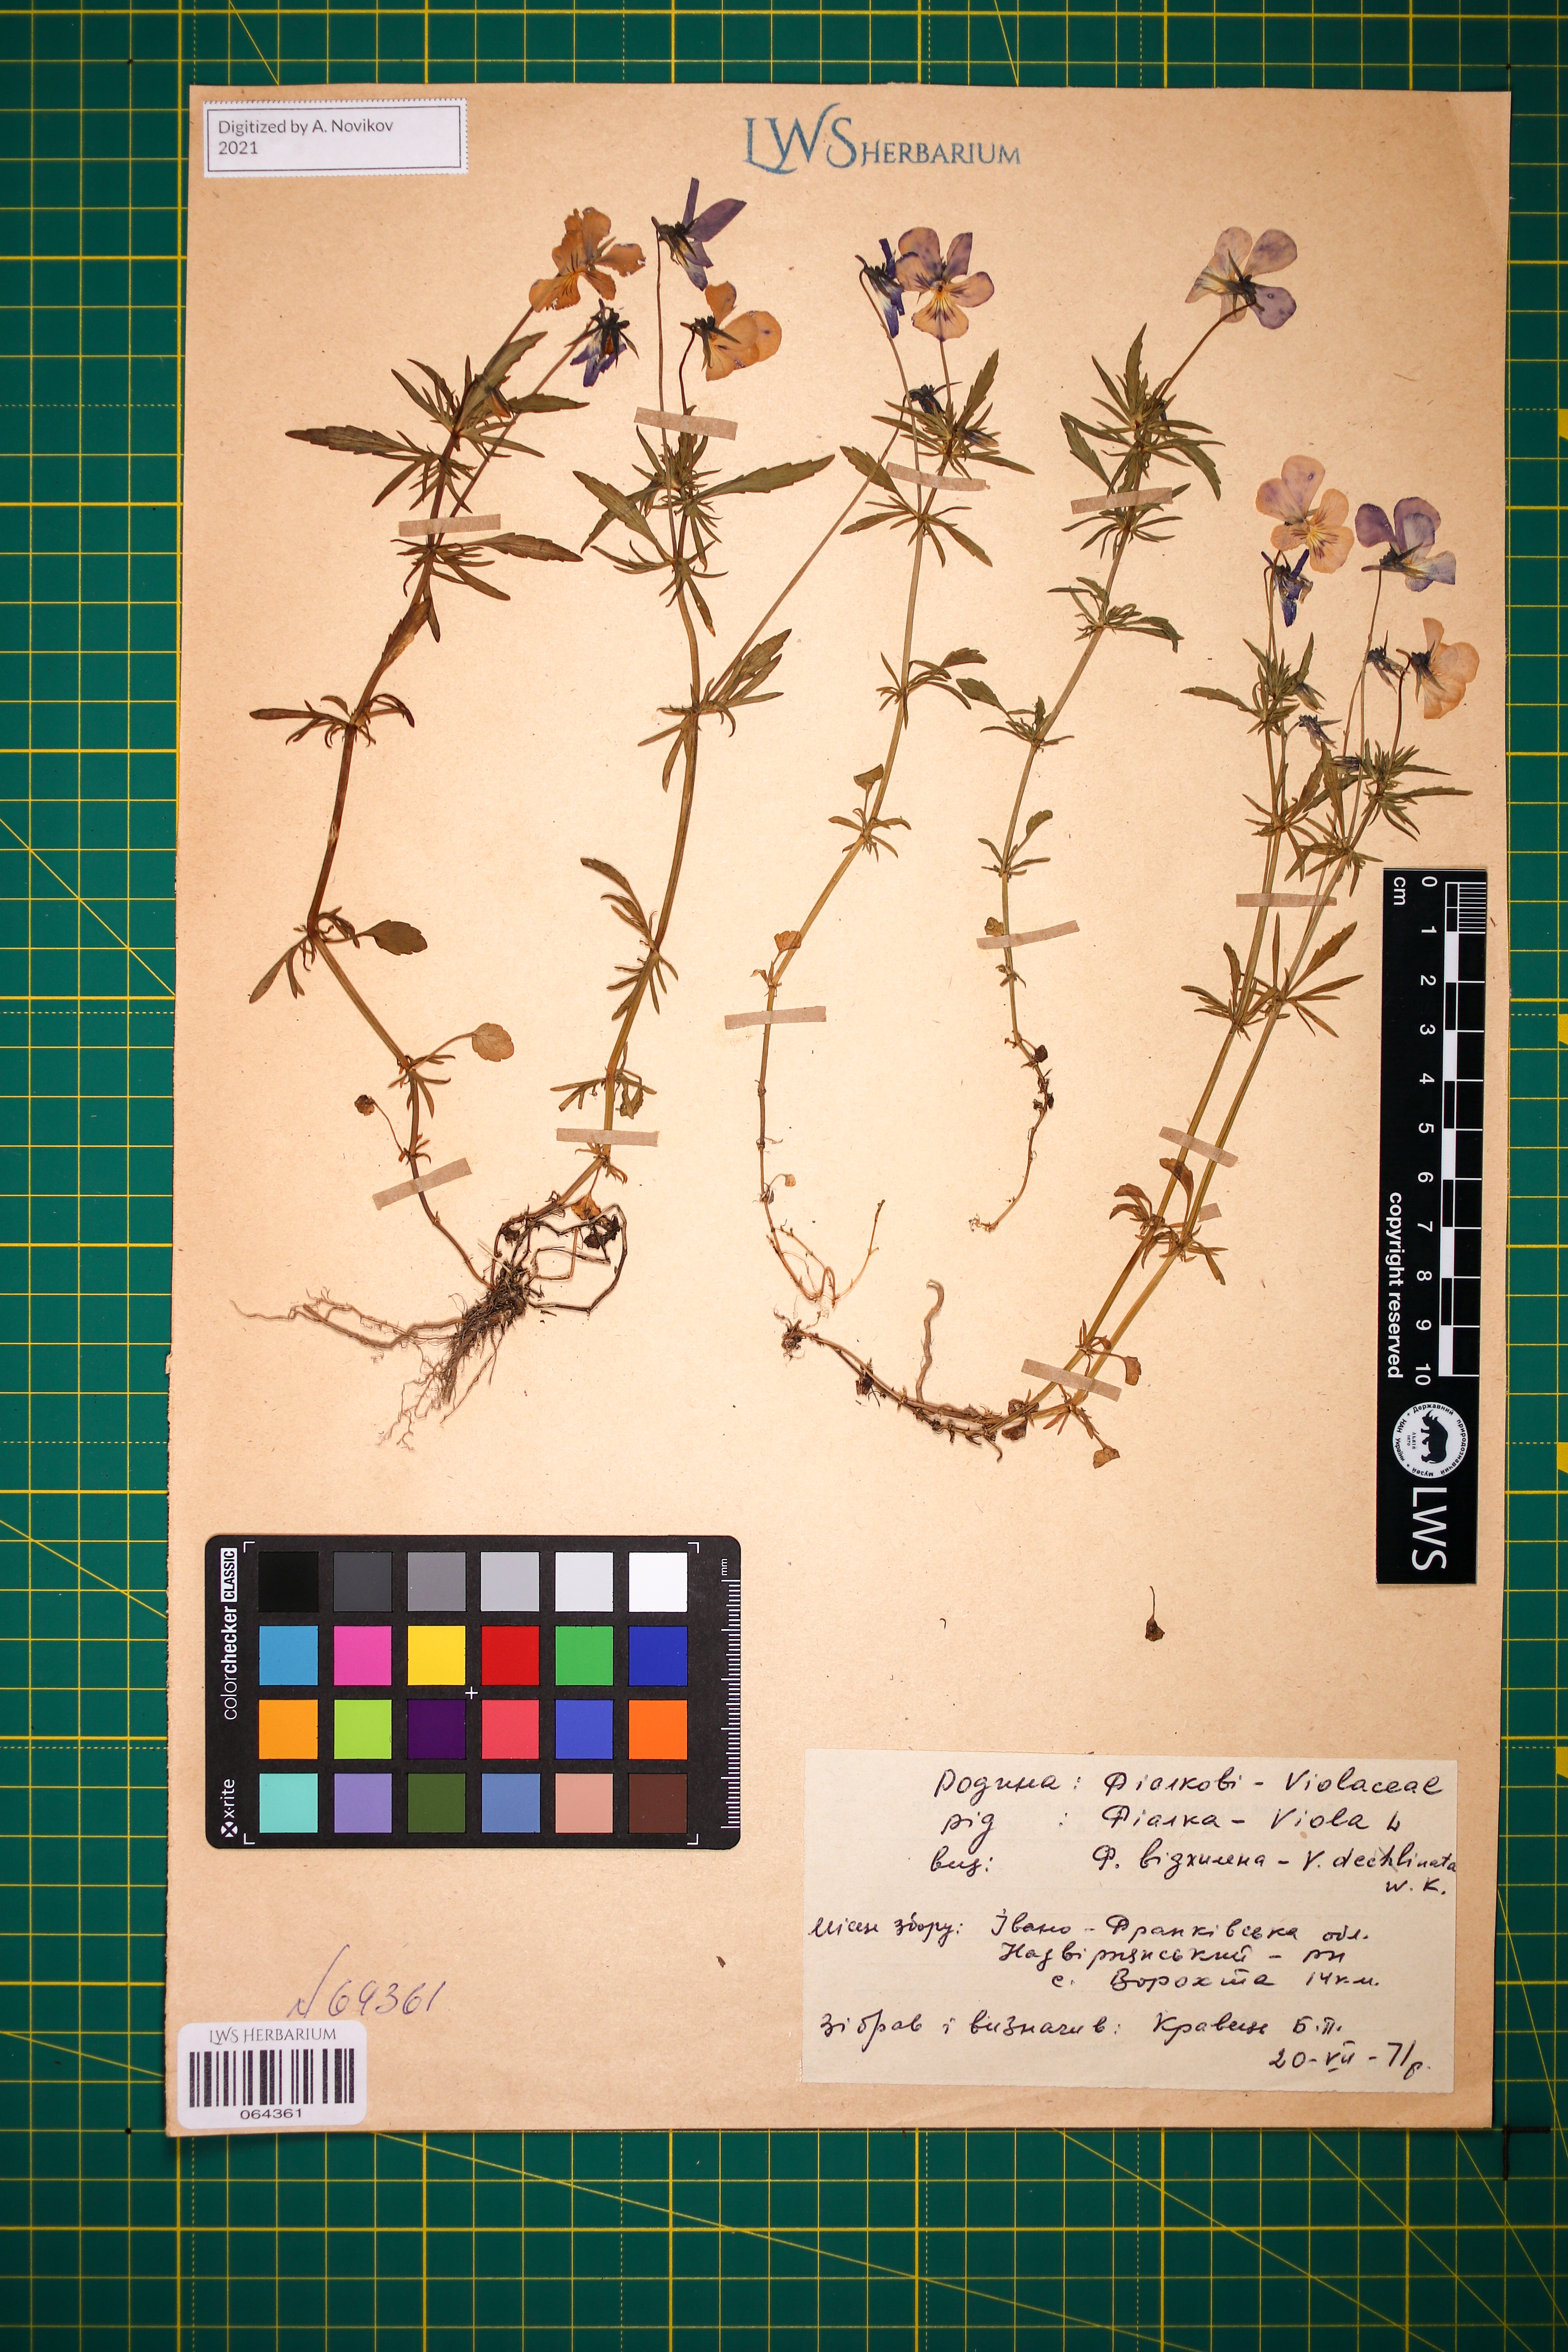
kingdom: Plantae
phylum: Tracheophyta
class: Magnoliopsida
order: Malpighiales
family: Violaceae
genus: Viola
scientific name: Viola declinata
